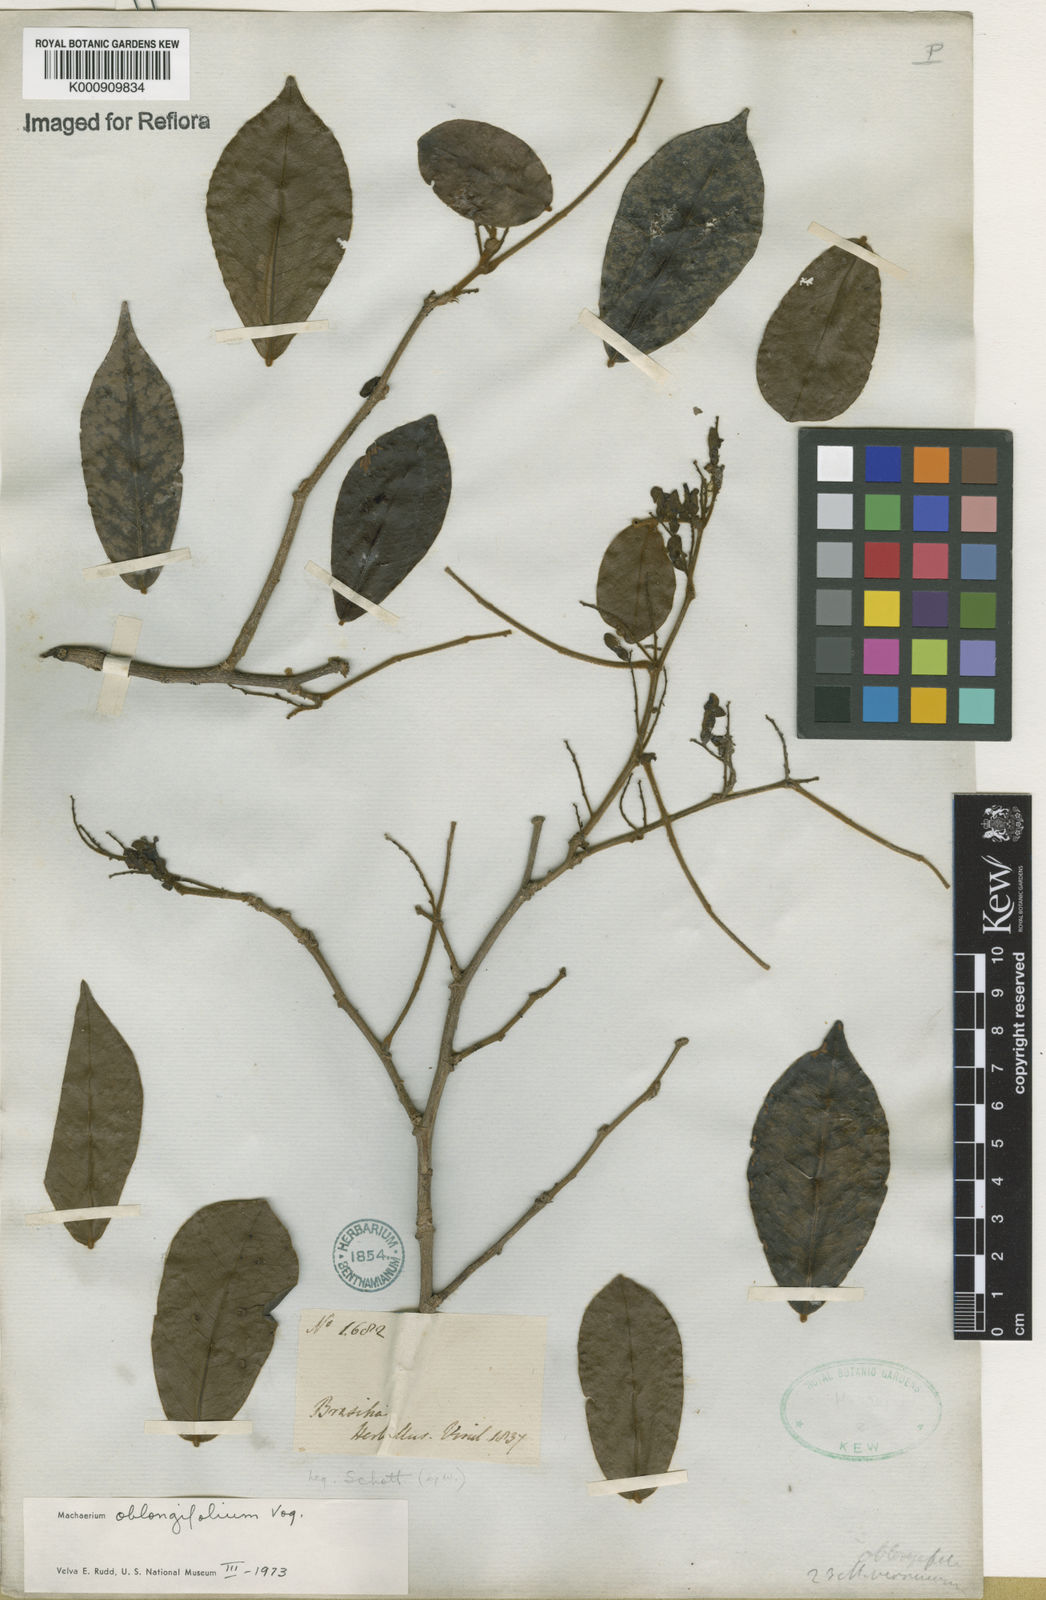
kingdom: Plantae
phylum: Tracheophyta
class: Magnoliopsida
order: Fabales
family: Fabaceae
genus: Machaerium
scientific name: Machaerium oblongifolium
